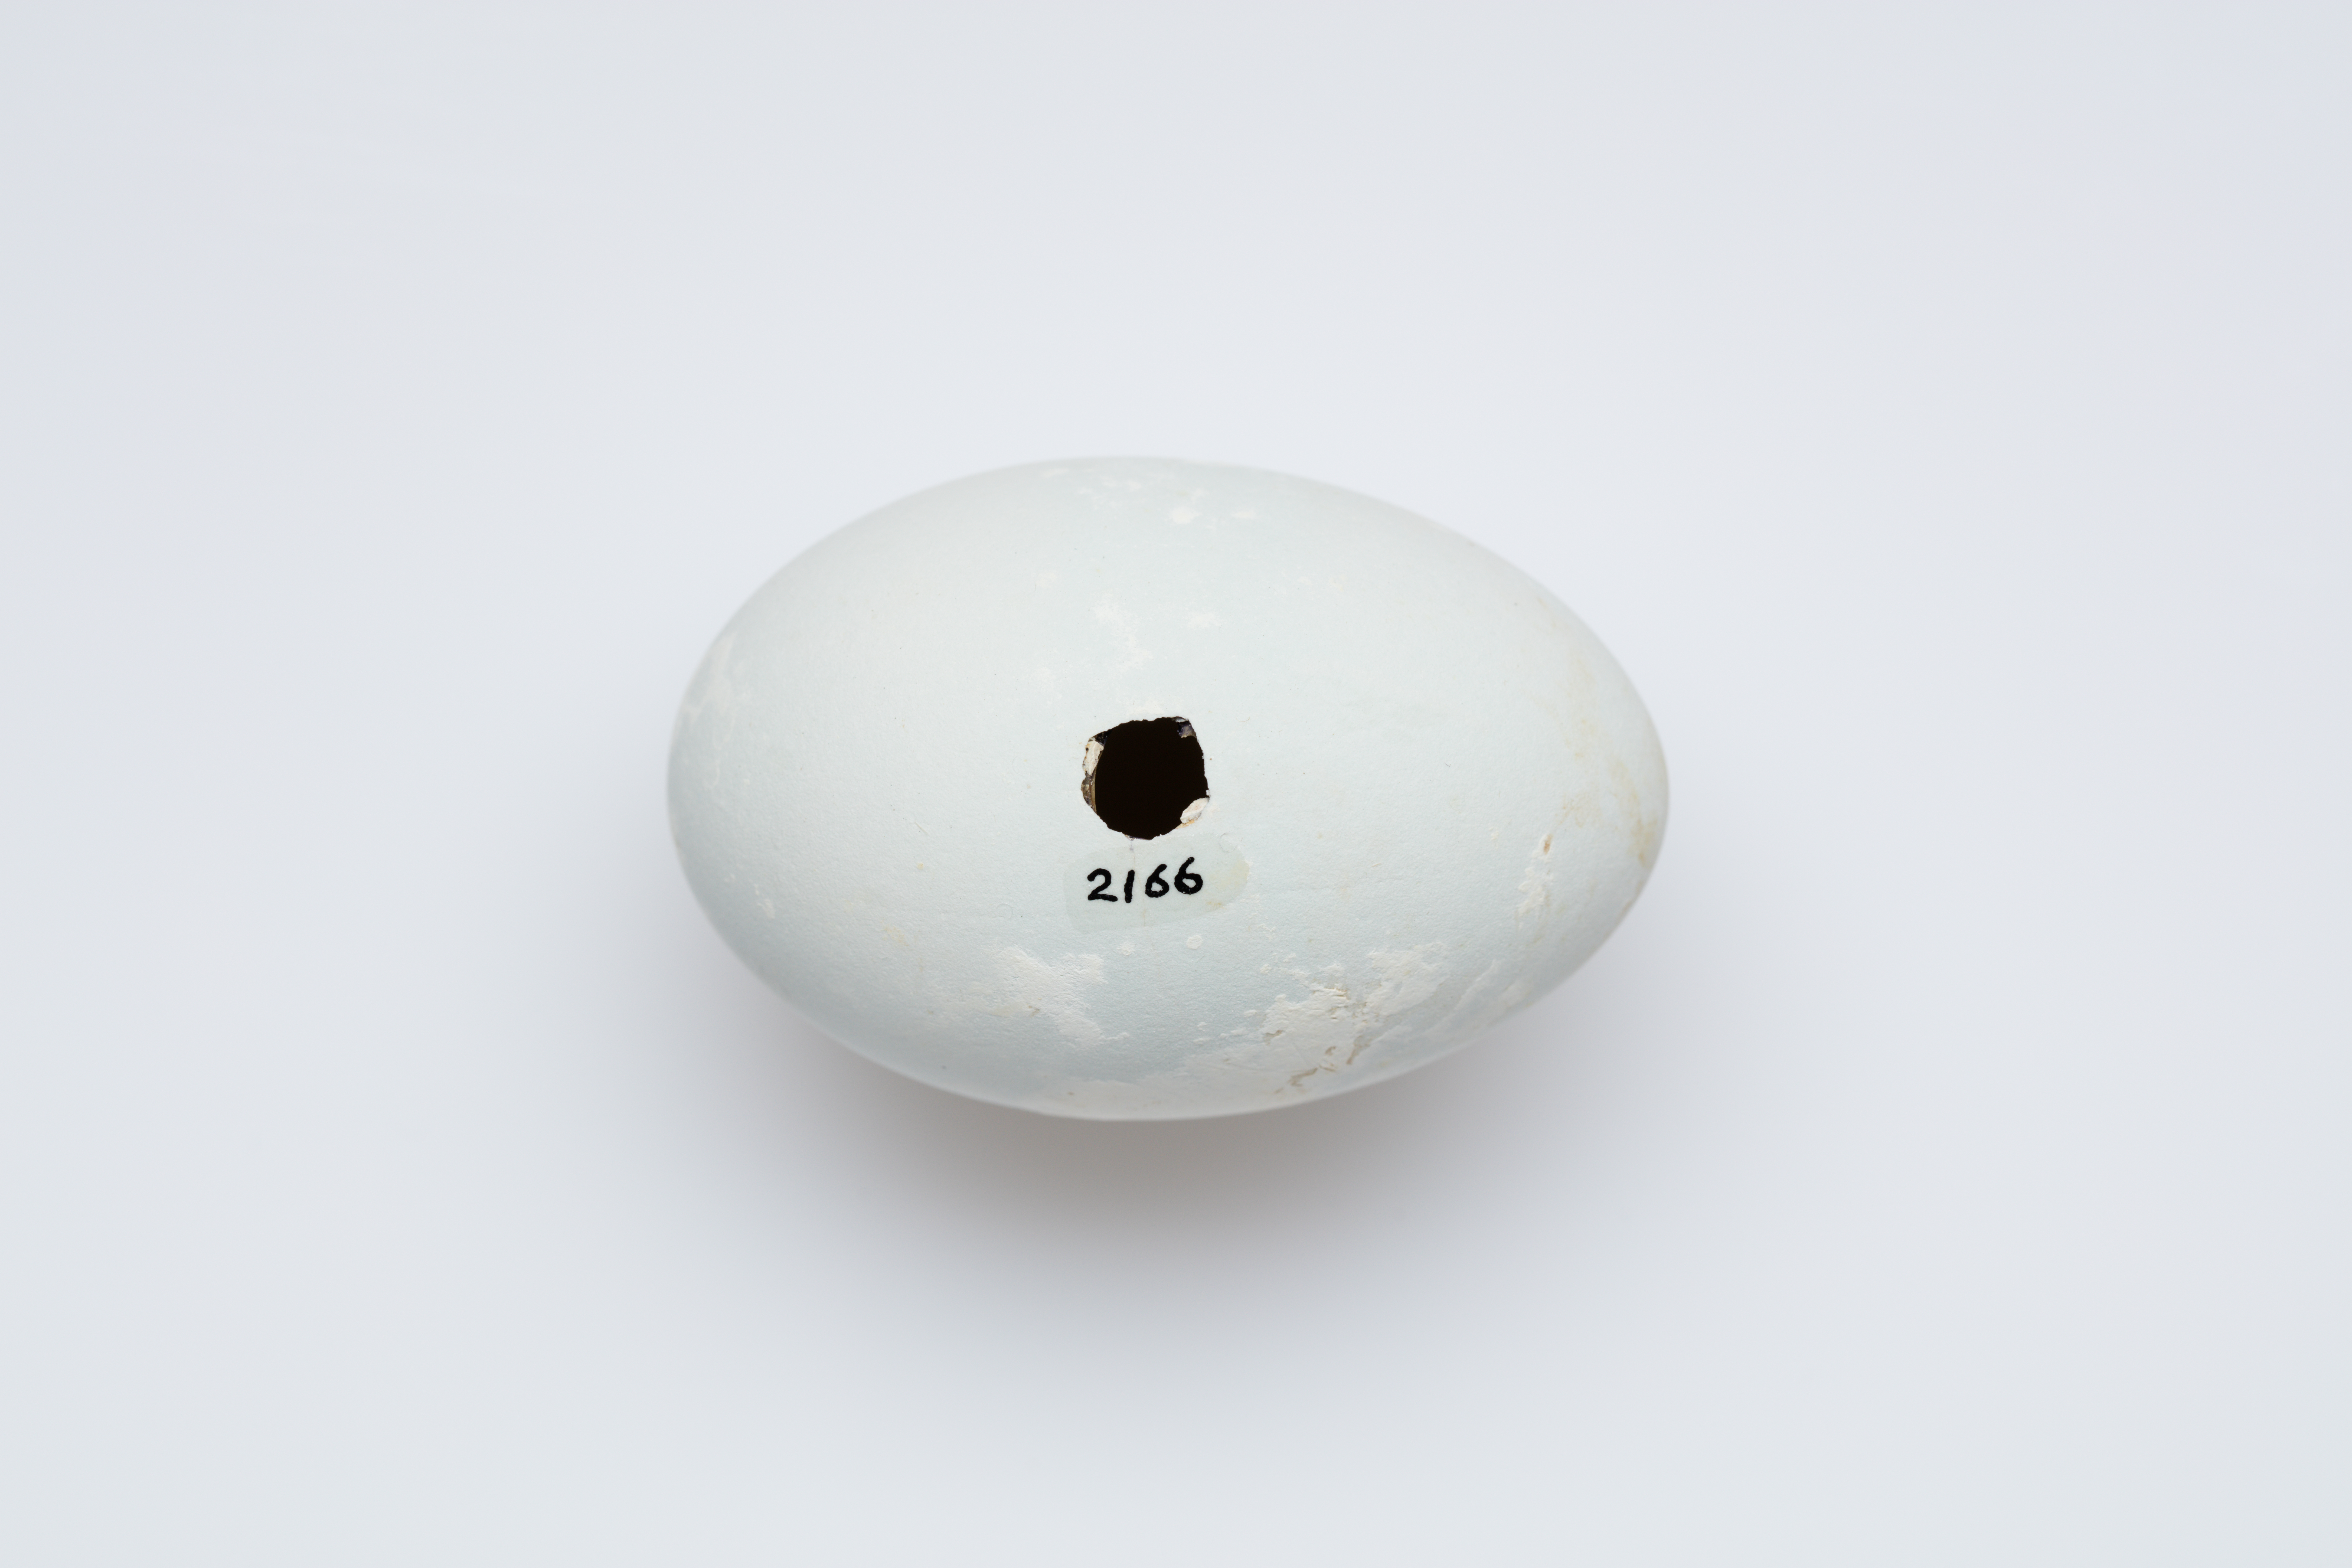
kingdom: Animalia
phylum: Chordata
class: Aves
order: Suliformes
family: Phalacrocoracidae
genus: Leucocarbo
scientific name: Leucocarbo onslowi
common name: Chatham shag
